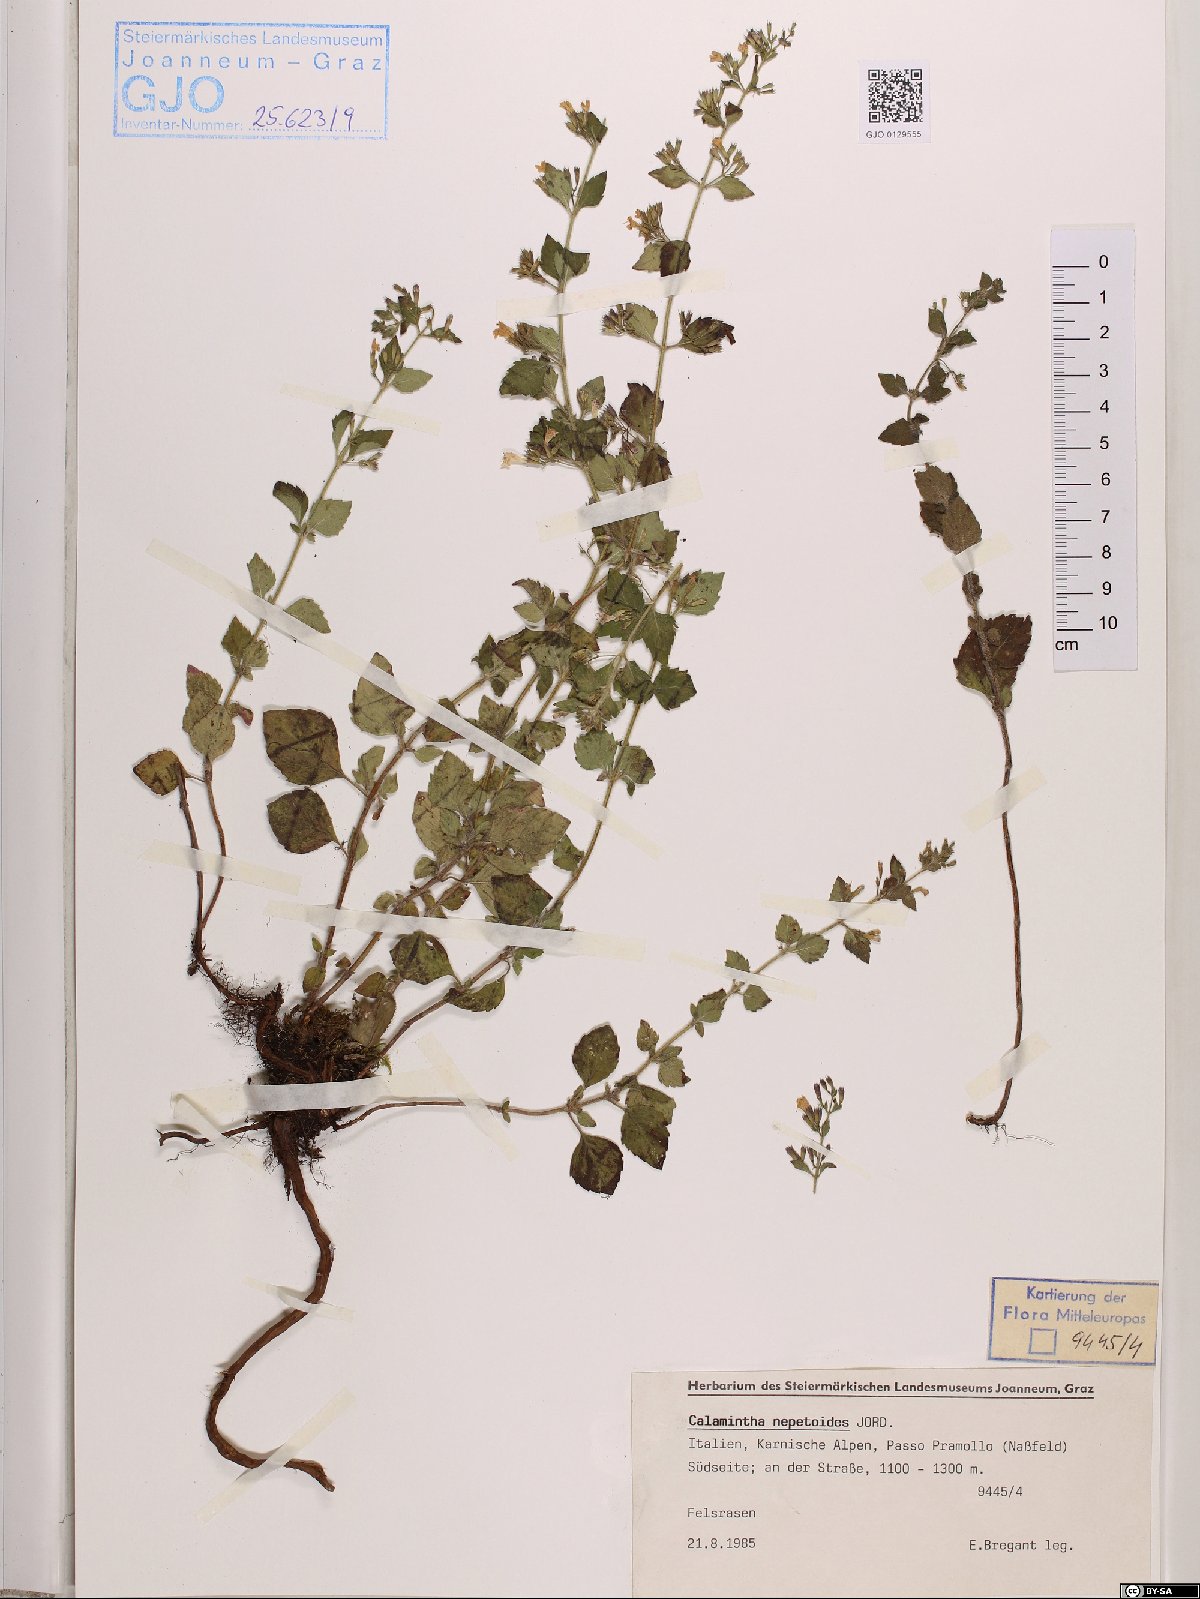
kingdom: Plantae
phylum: Tracheophyta
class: Magnoliopsida
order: Lamiales
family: Lamiaceae
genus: Clinopodium
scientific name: Clinopodium nepeta
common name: Lesser calamint
